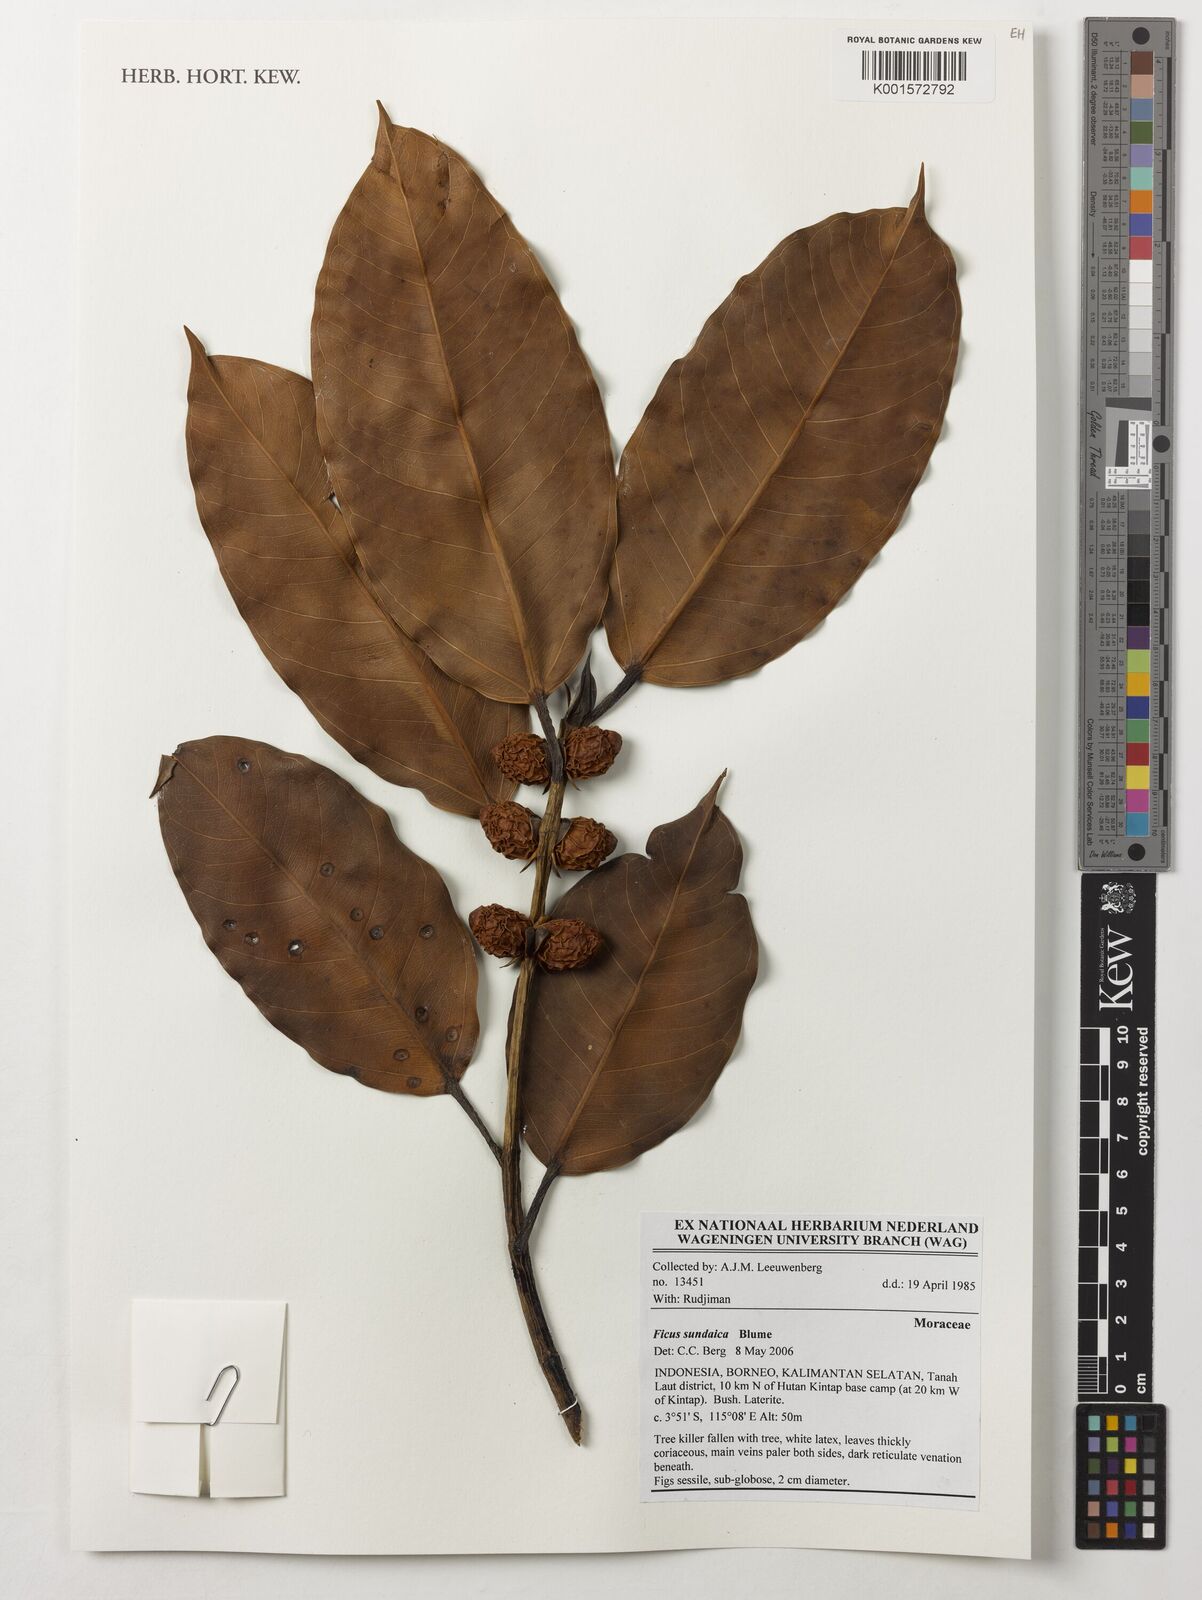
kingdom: Plantae
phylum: Tracheophyta
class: Magnoliopsida
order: Rosales
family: Moraceae
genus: Ficus
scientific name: Ficus sundaica
